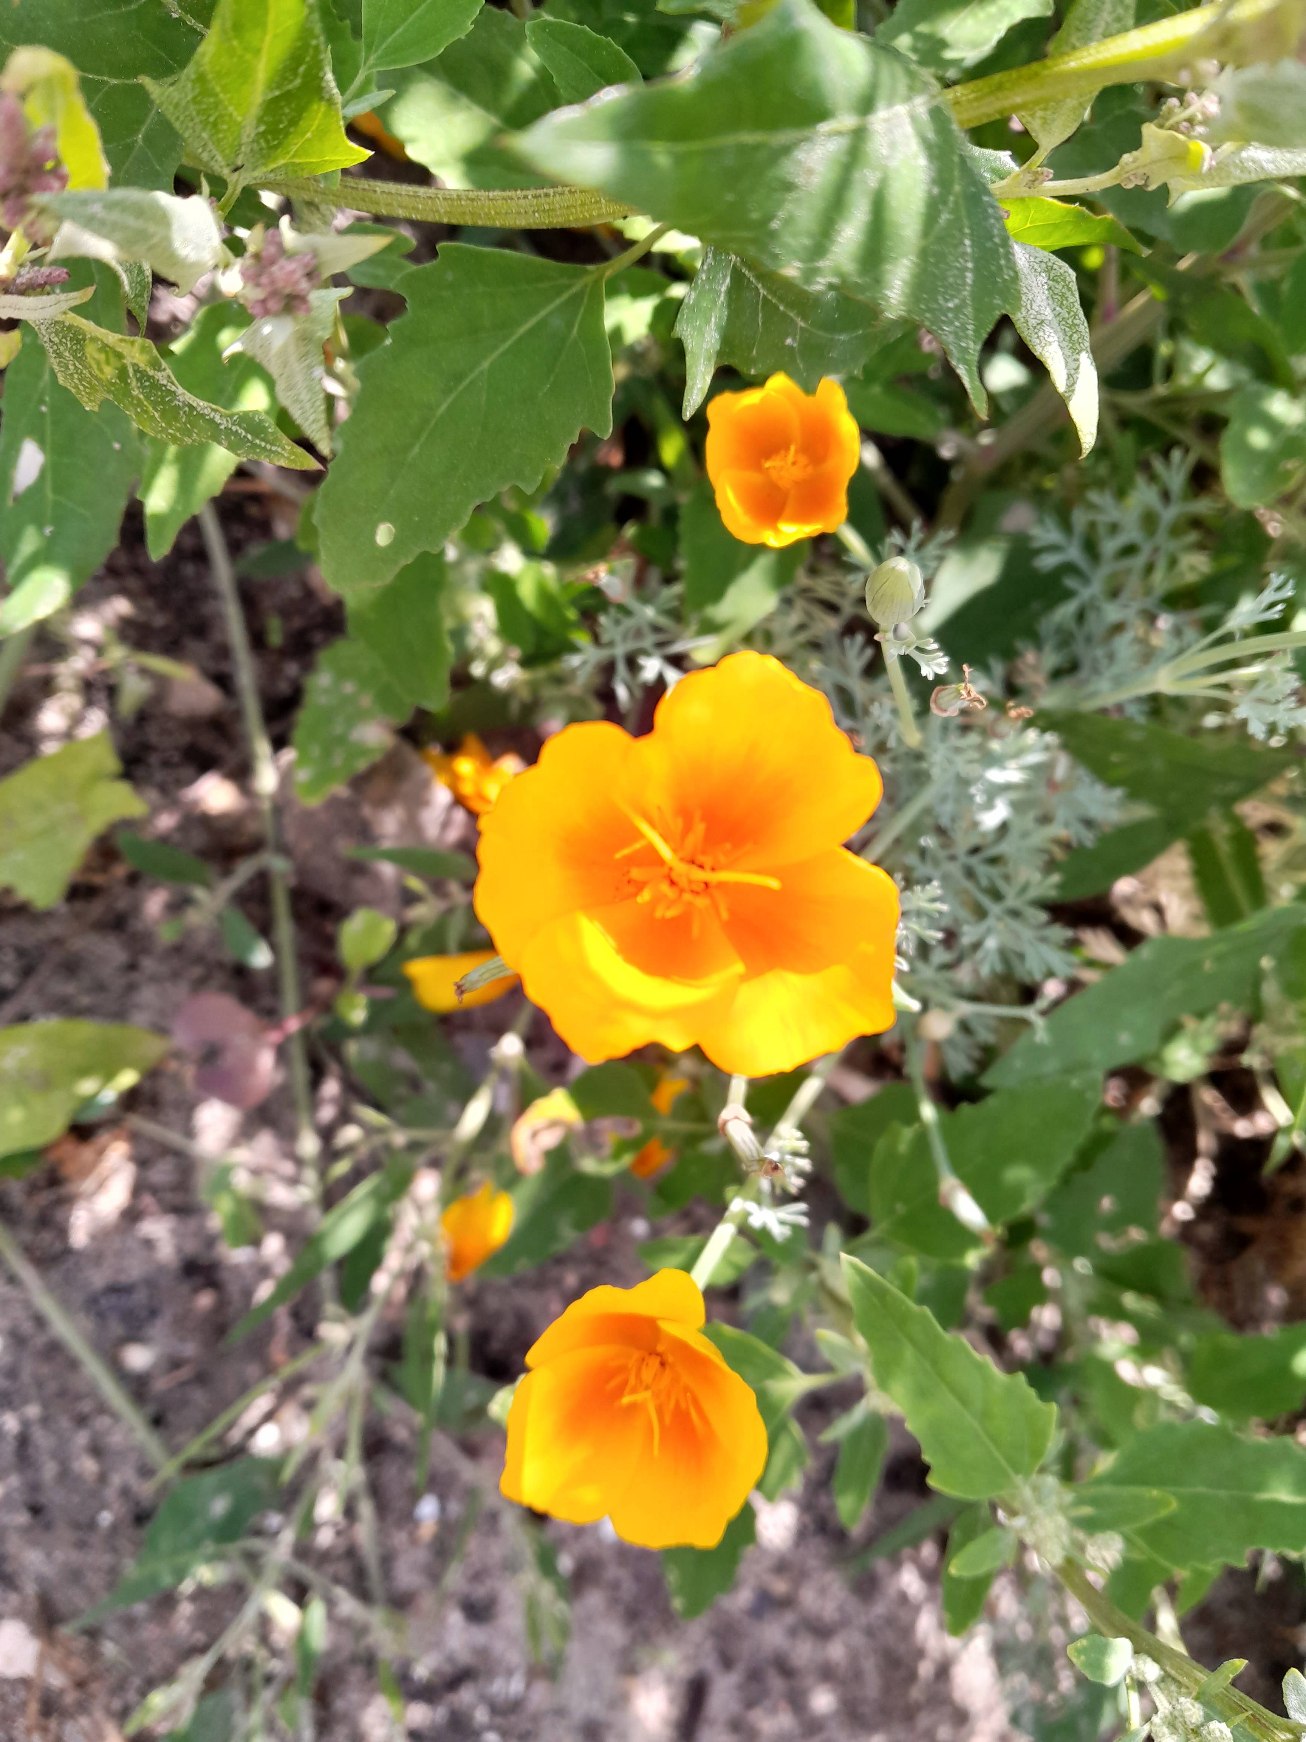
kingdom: Plantae
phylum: Tracheophyta
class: Magnoliopsida
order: Ranunculales
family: Papaveraceae
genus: Eschscholzia
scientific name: Eschscholzia californica
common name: Guldvalmue
